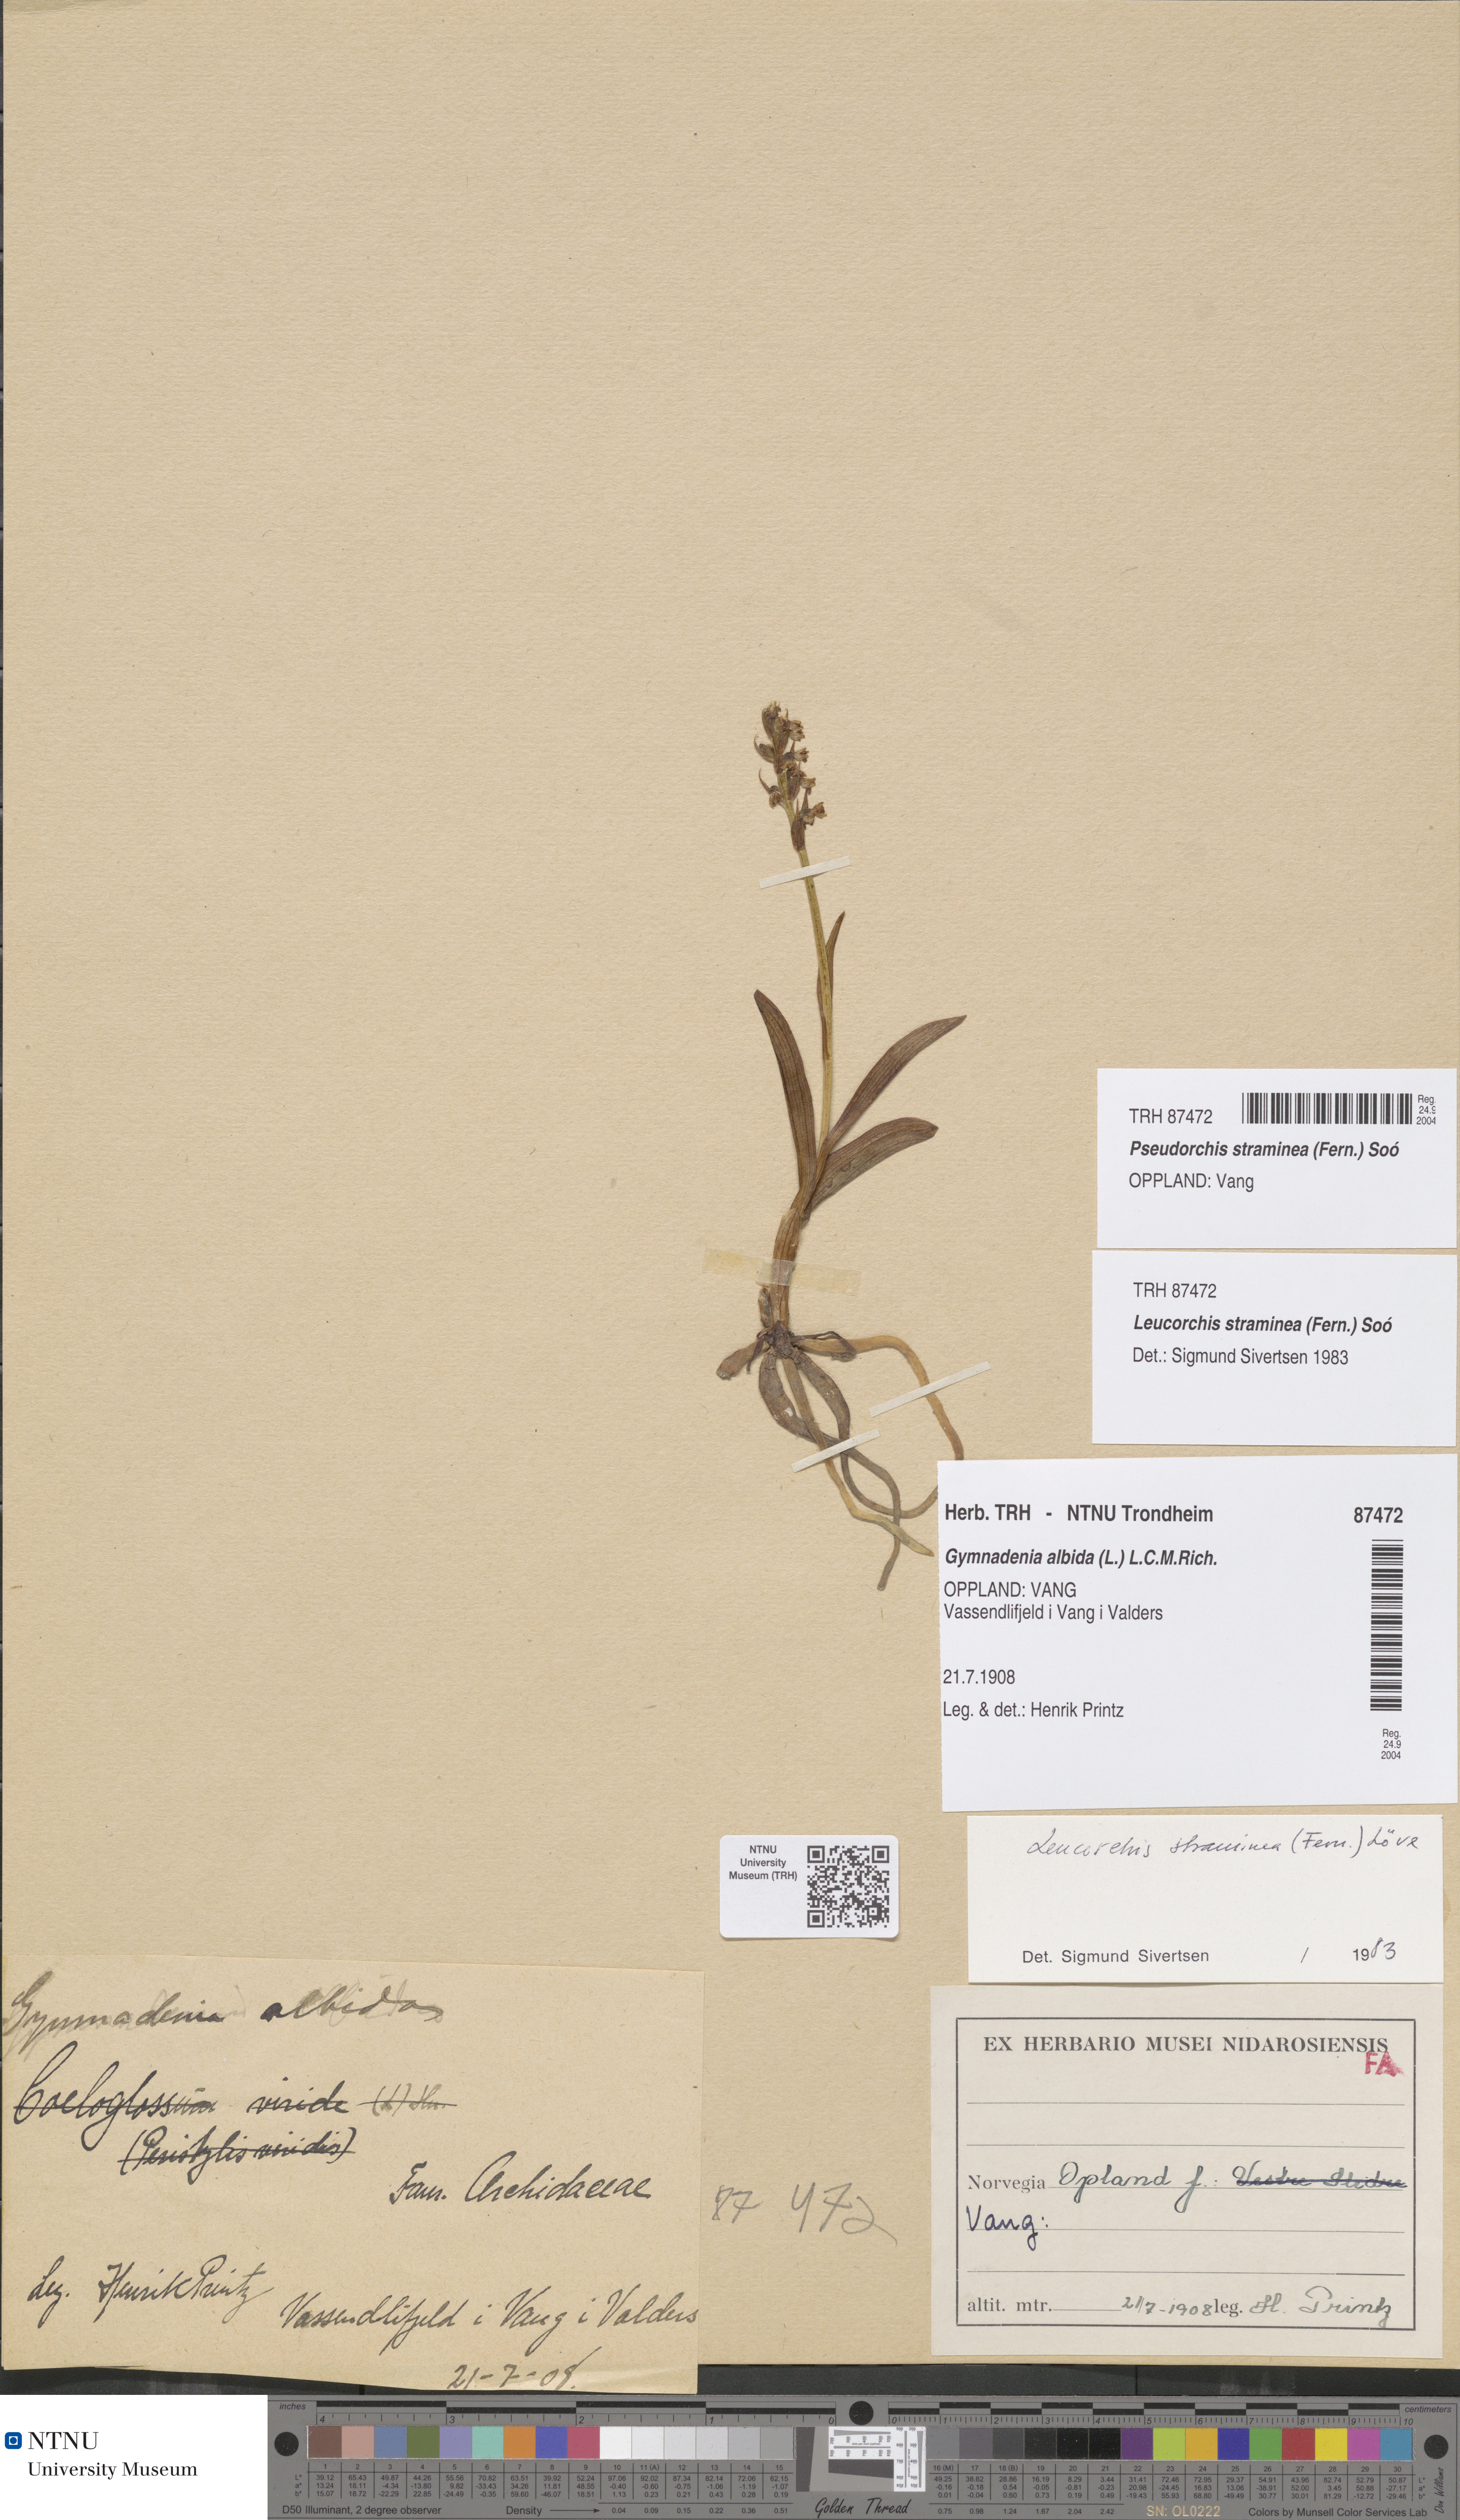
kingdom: Plantae
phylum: Tracheophyta
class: Liliopsida
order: Asparagales
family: Orchidaceae
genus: Pseudorchis
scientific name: Pseudorchis straminea
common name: Vanilla-scented bog orchid
